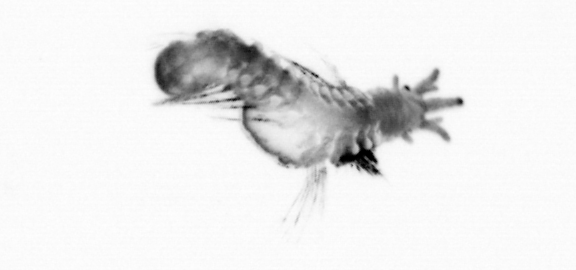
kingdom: Animalia
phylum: Annelida
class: Polychaeta
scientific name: Polychaeta
